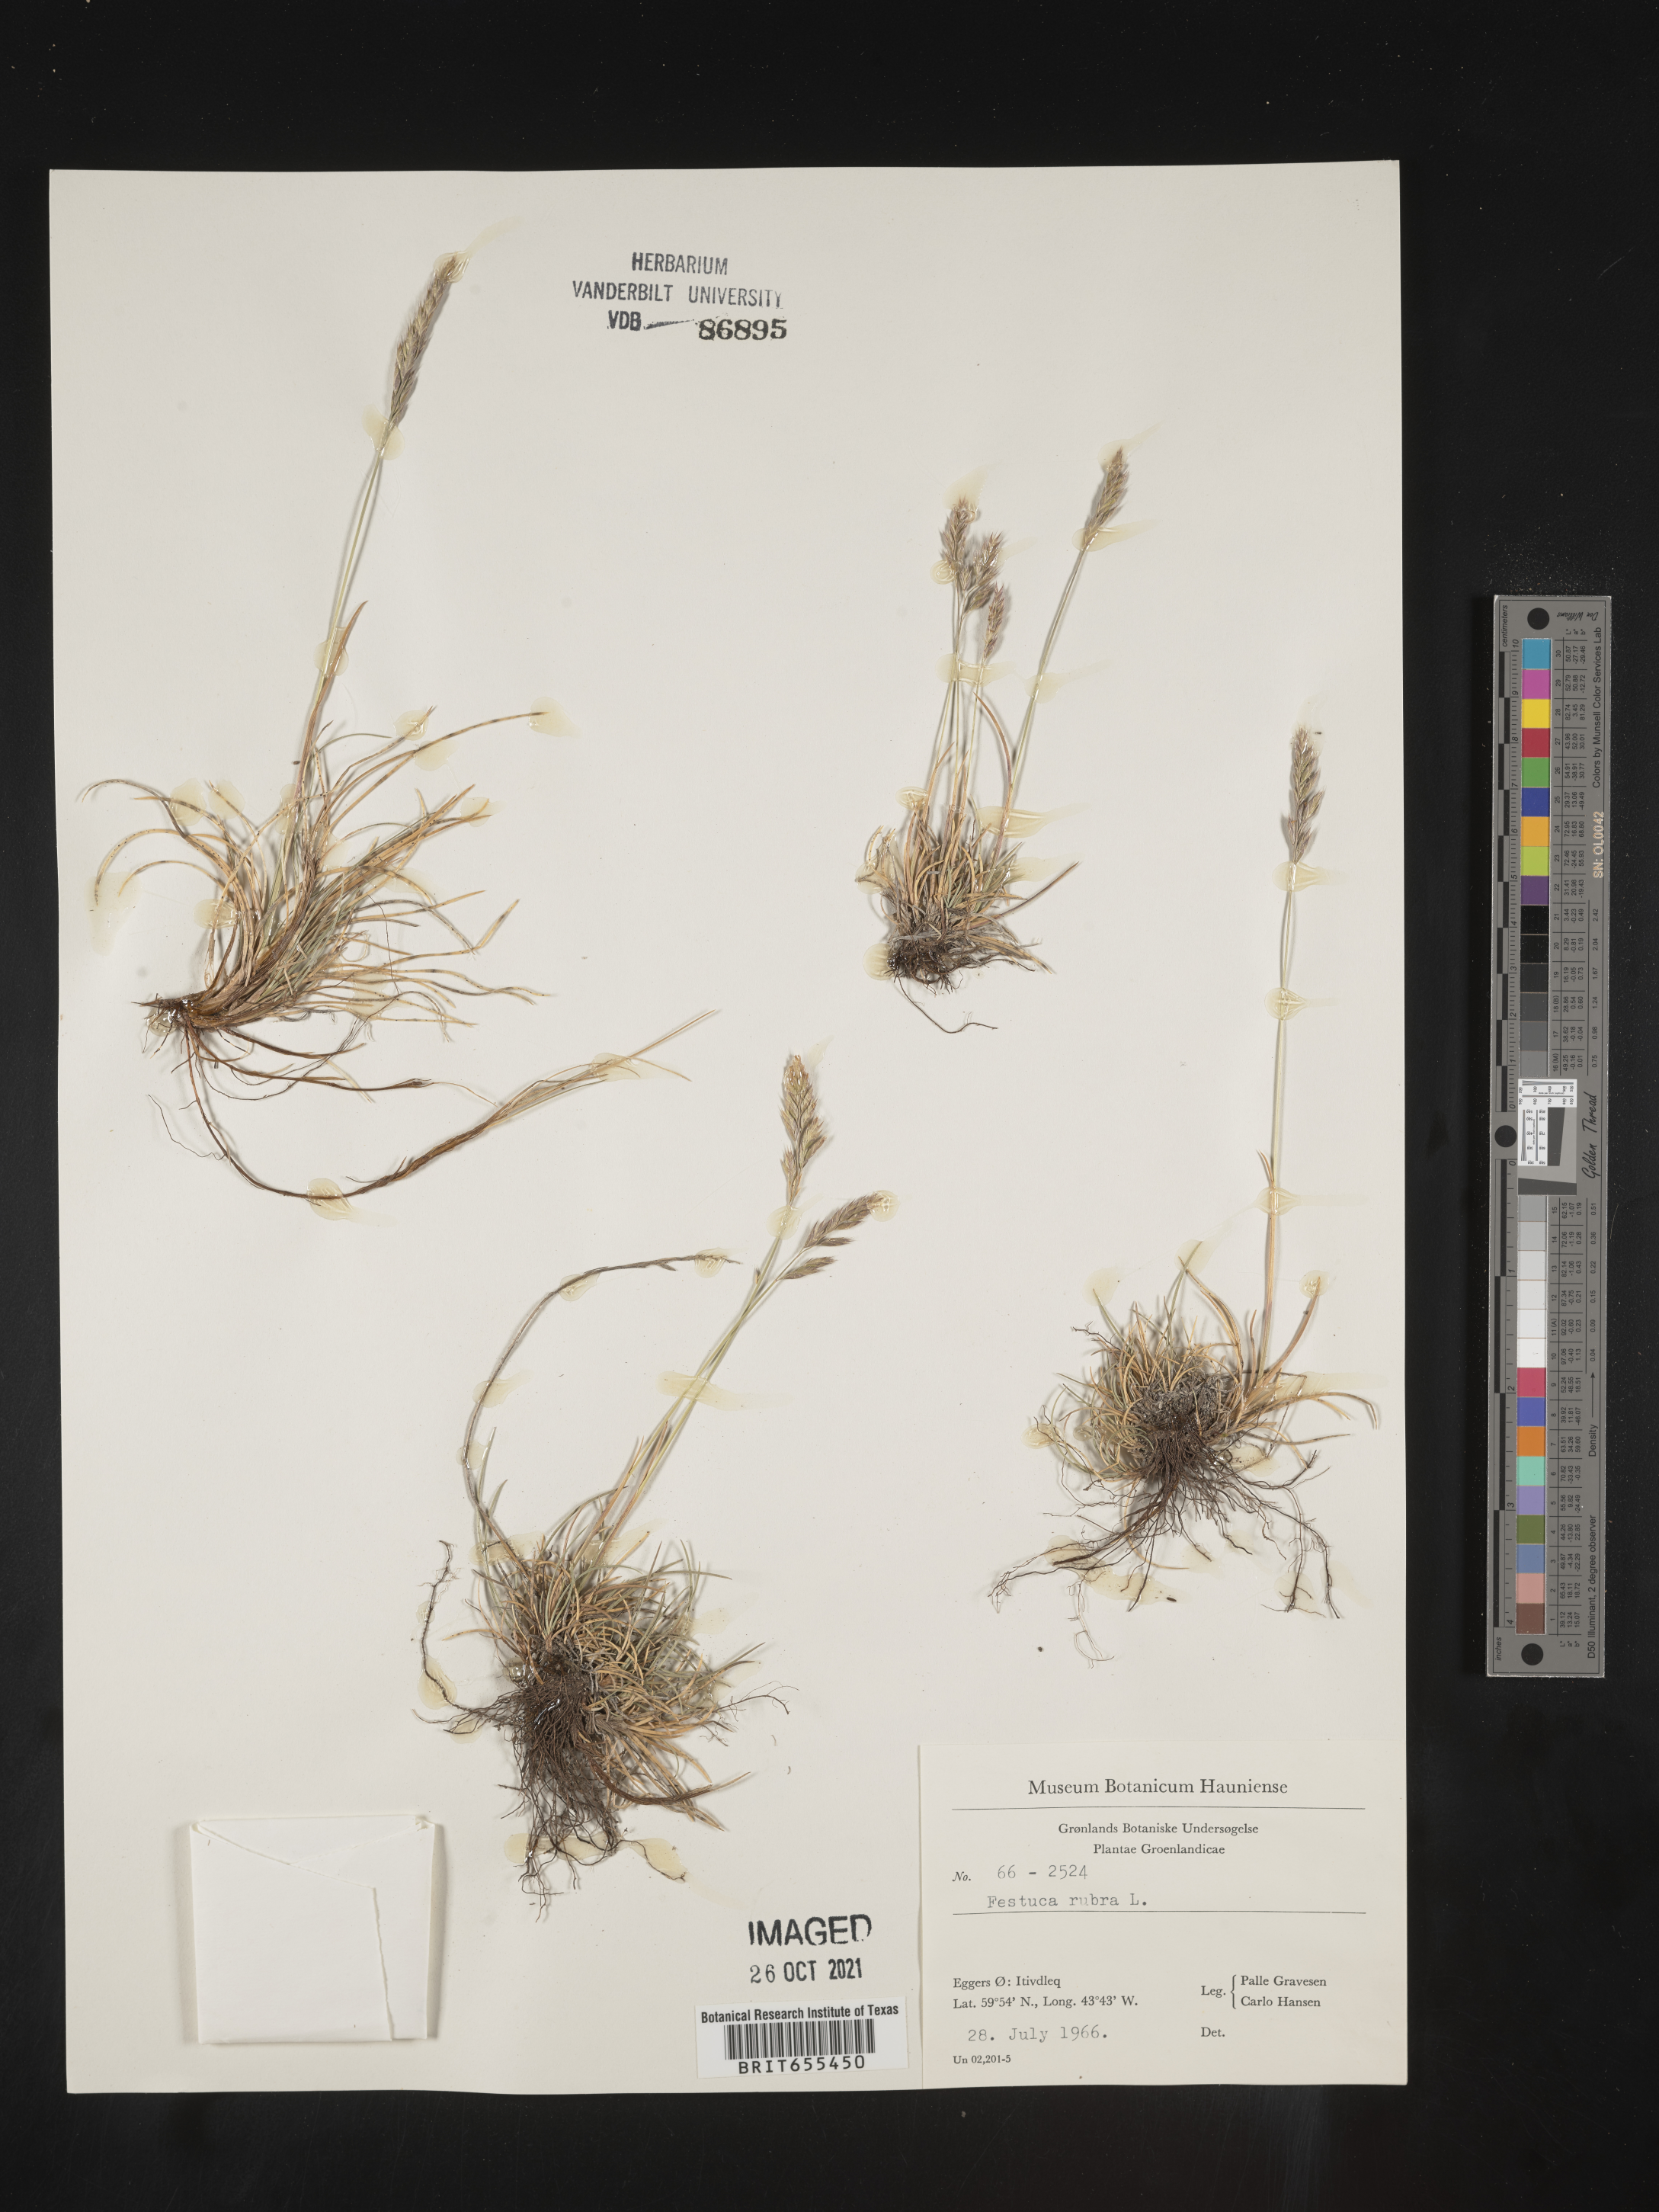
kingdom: Plantae
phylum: Tracheophyta
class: Liliopsida
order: Poales
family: Poaceae
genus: Festuca
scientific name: Festuca
